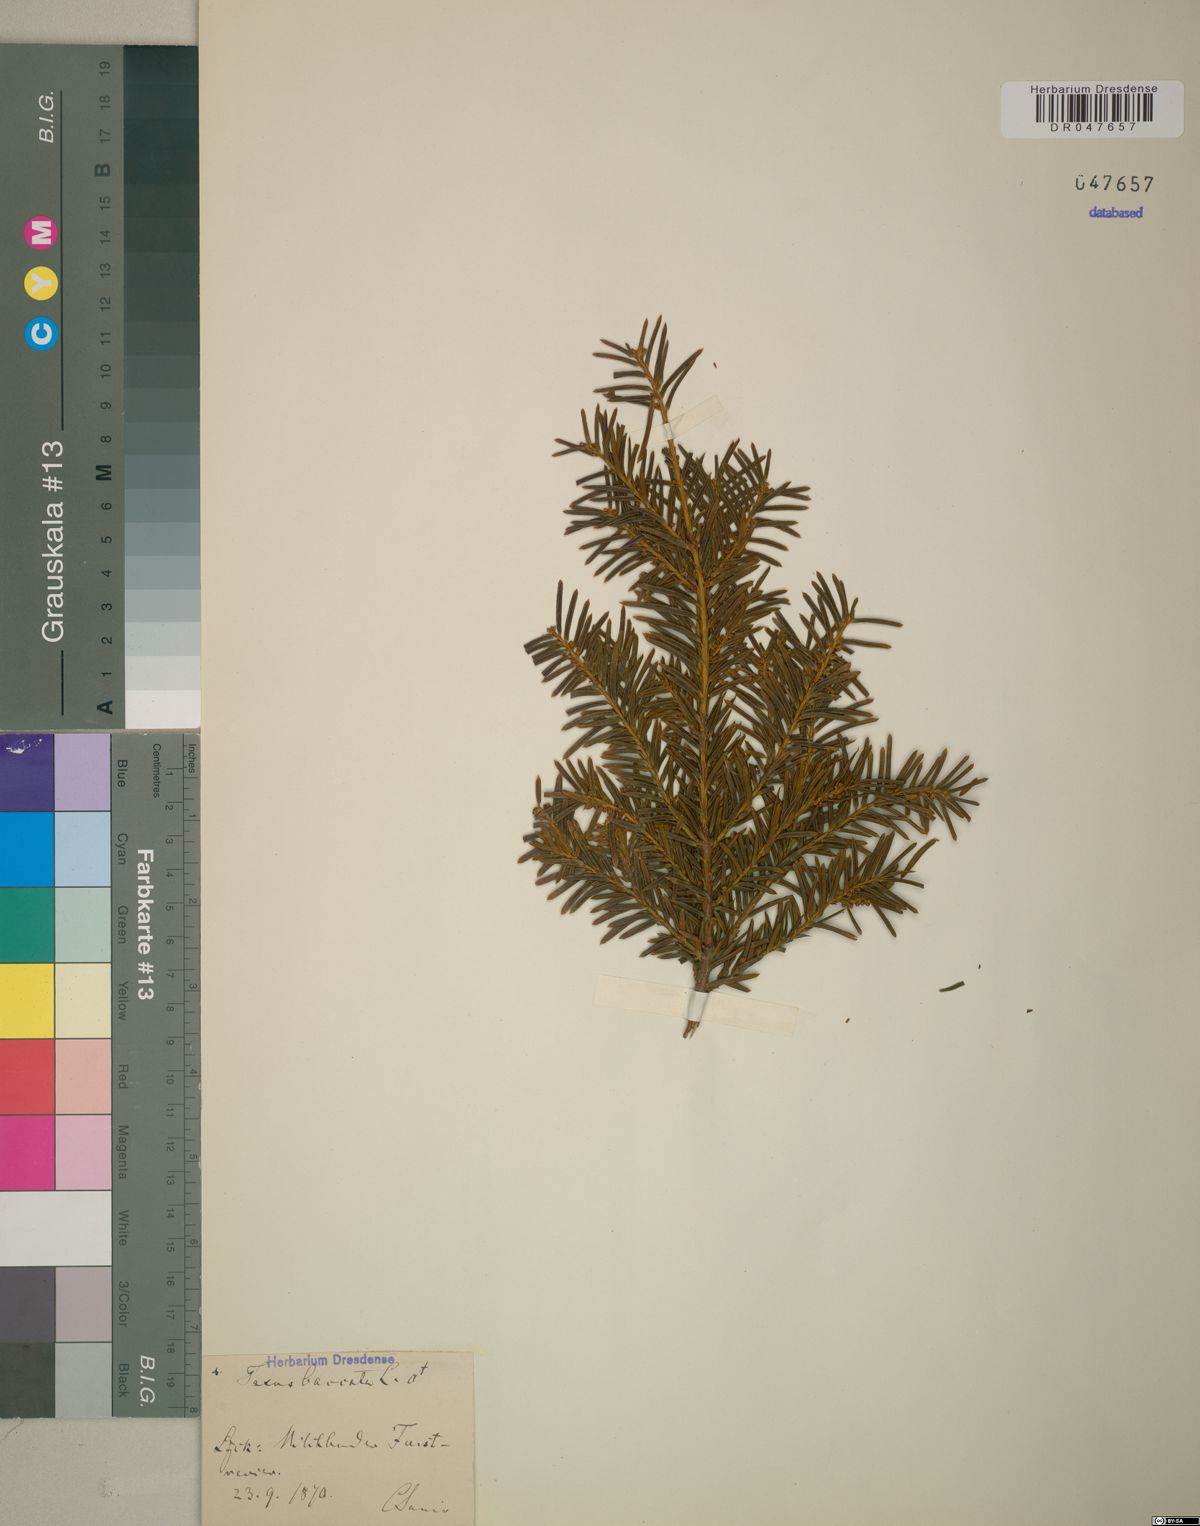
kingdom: Plantae
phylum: Tracheophyta
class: Pinopsida
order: Pinales
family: Taxaceae
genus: Taxus
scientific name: Taxus baccata
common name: Yew
